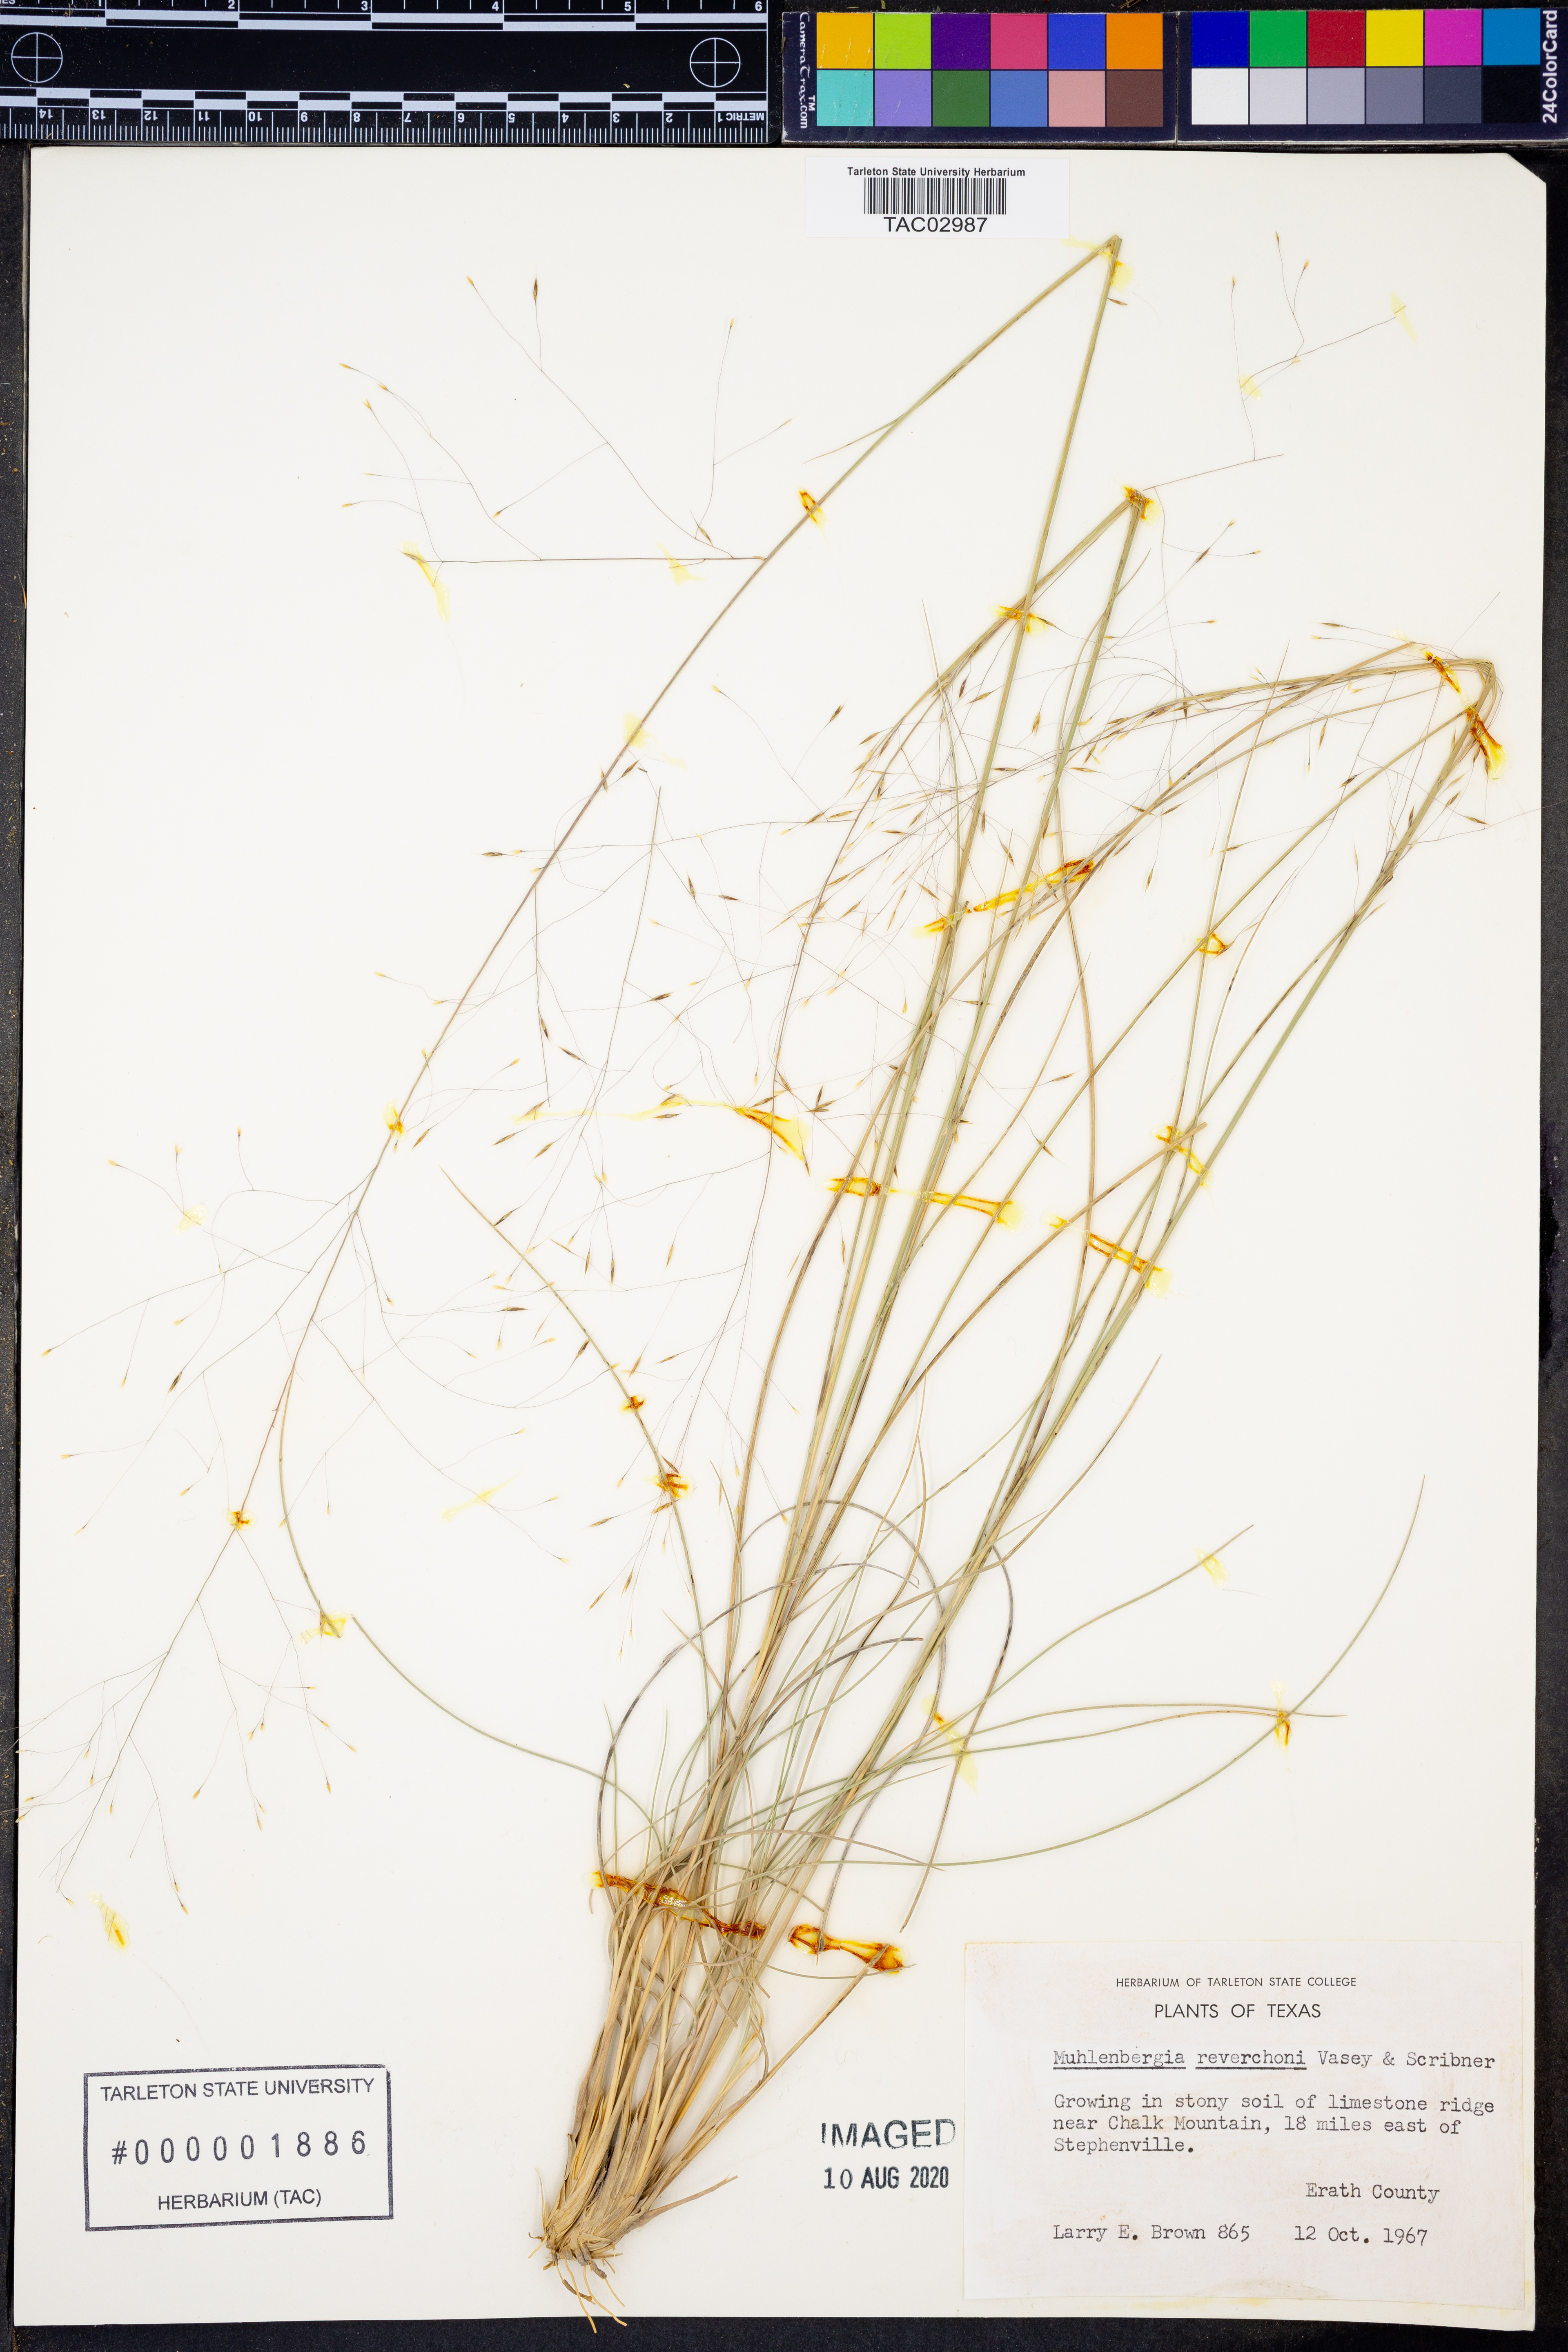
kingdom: Plantae
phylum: Tracheophyta
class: Liliopsida
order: Poales
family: Poaceae
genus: Muhlenbergia
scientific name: Muhlenbergia reverchonii
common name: Seep muhly
